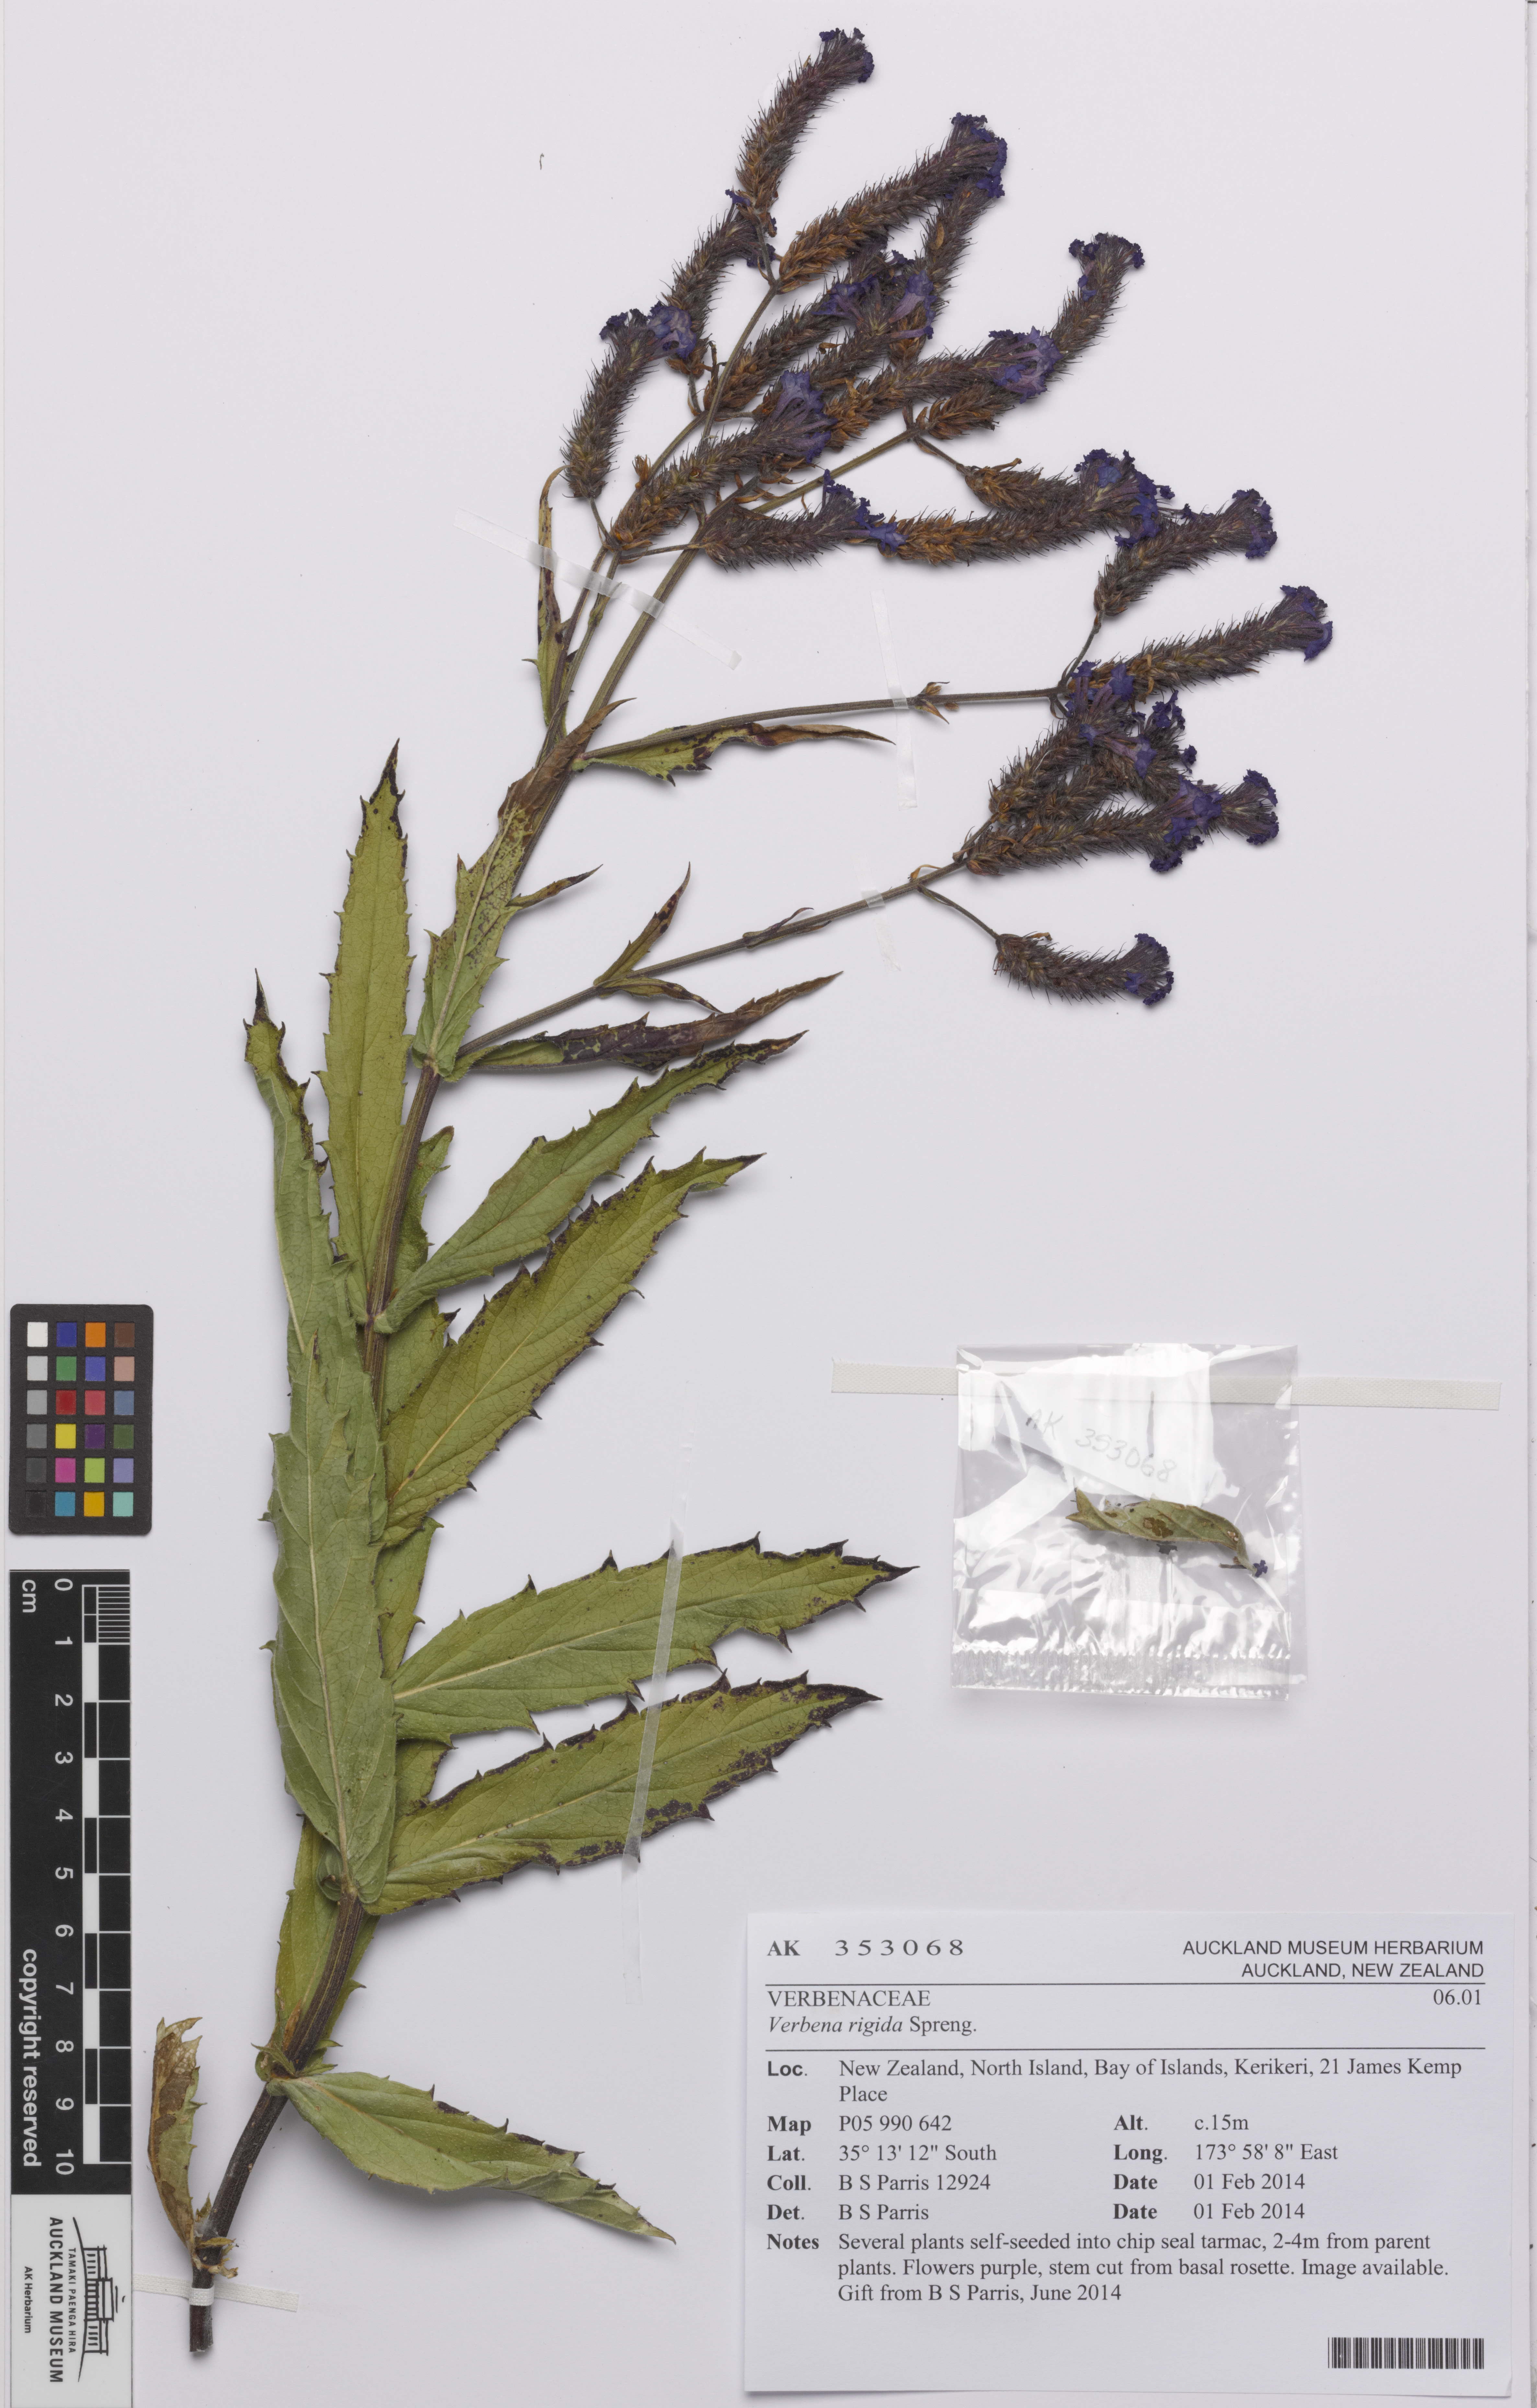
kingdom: Plantae
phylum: Tracheophyta
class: Magnoliopsida
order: Lamiales
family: Verbenaceae
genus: Verbena
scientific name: Verbena rigida
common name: Slender vervain
